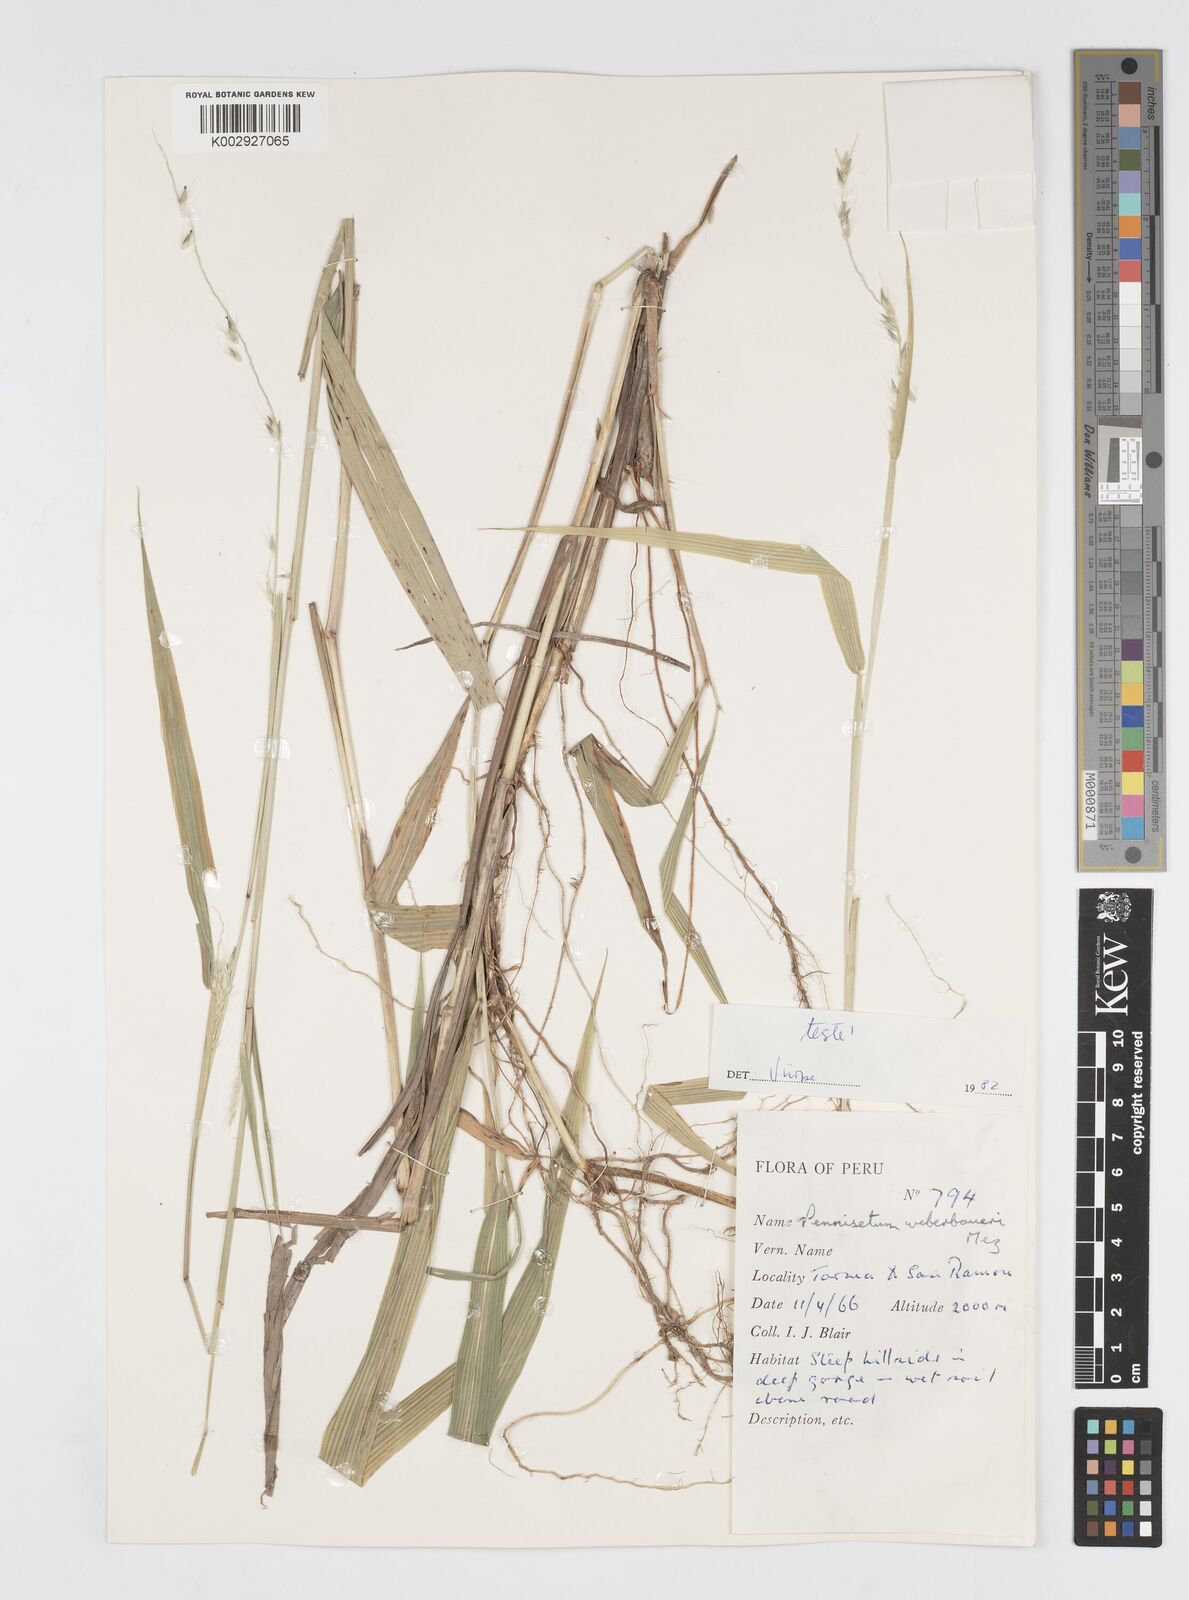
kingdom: Plantae
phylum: Tracheophyta
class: Liliopsida
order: Poales
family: Poaceae
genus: Cenchrus
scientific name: Cenchrus weberbaueri
